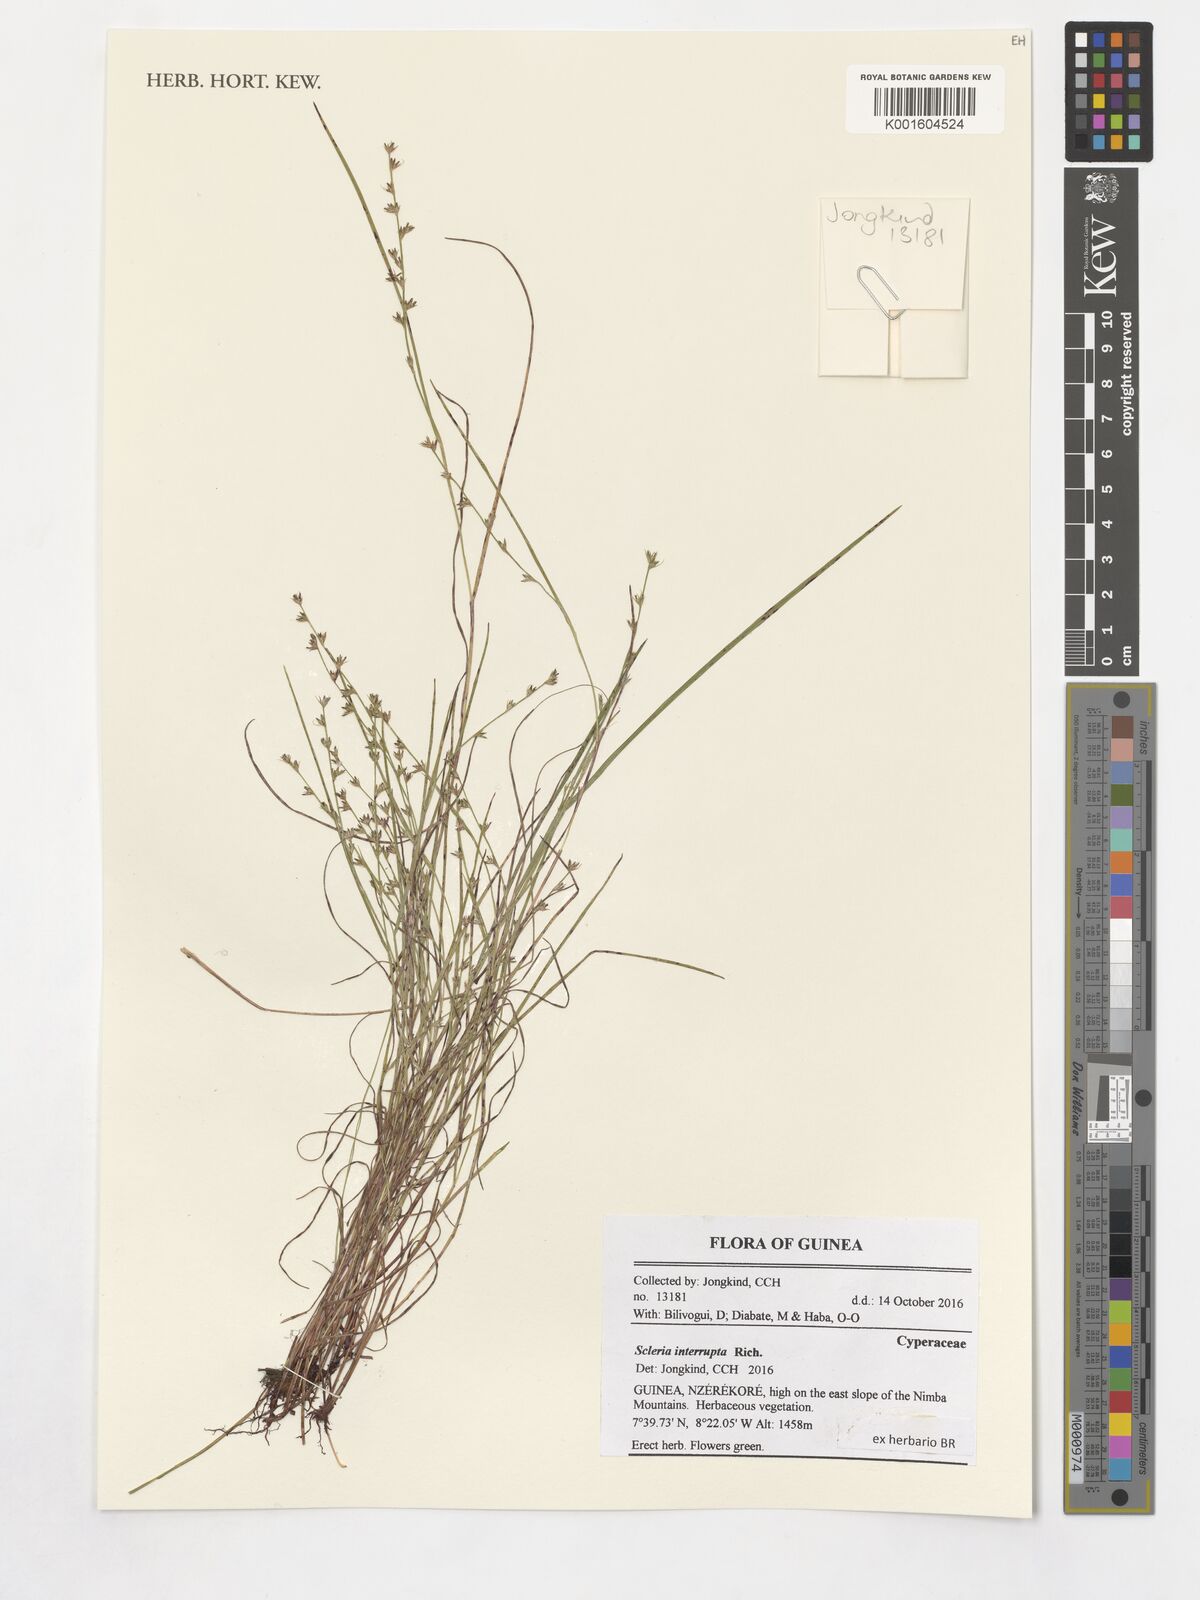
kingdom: Plantae
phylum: Tracheophyta
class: Liliopsida
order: Poales
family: Cyperaceae
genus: Scleria
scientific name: Scleria interrupta
